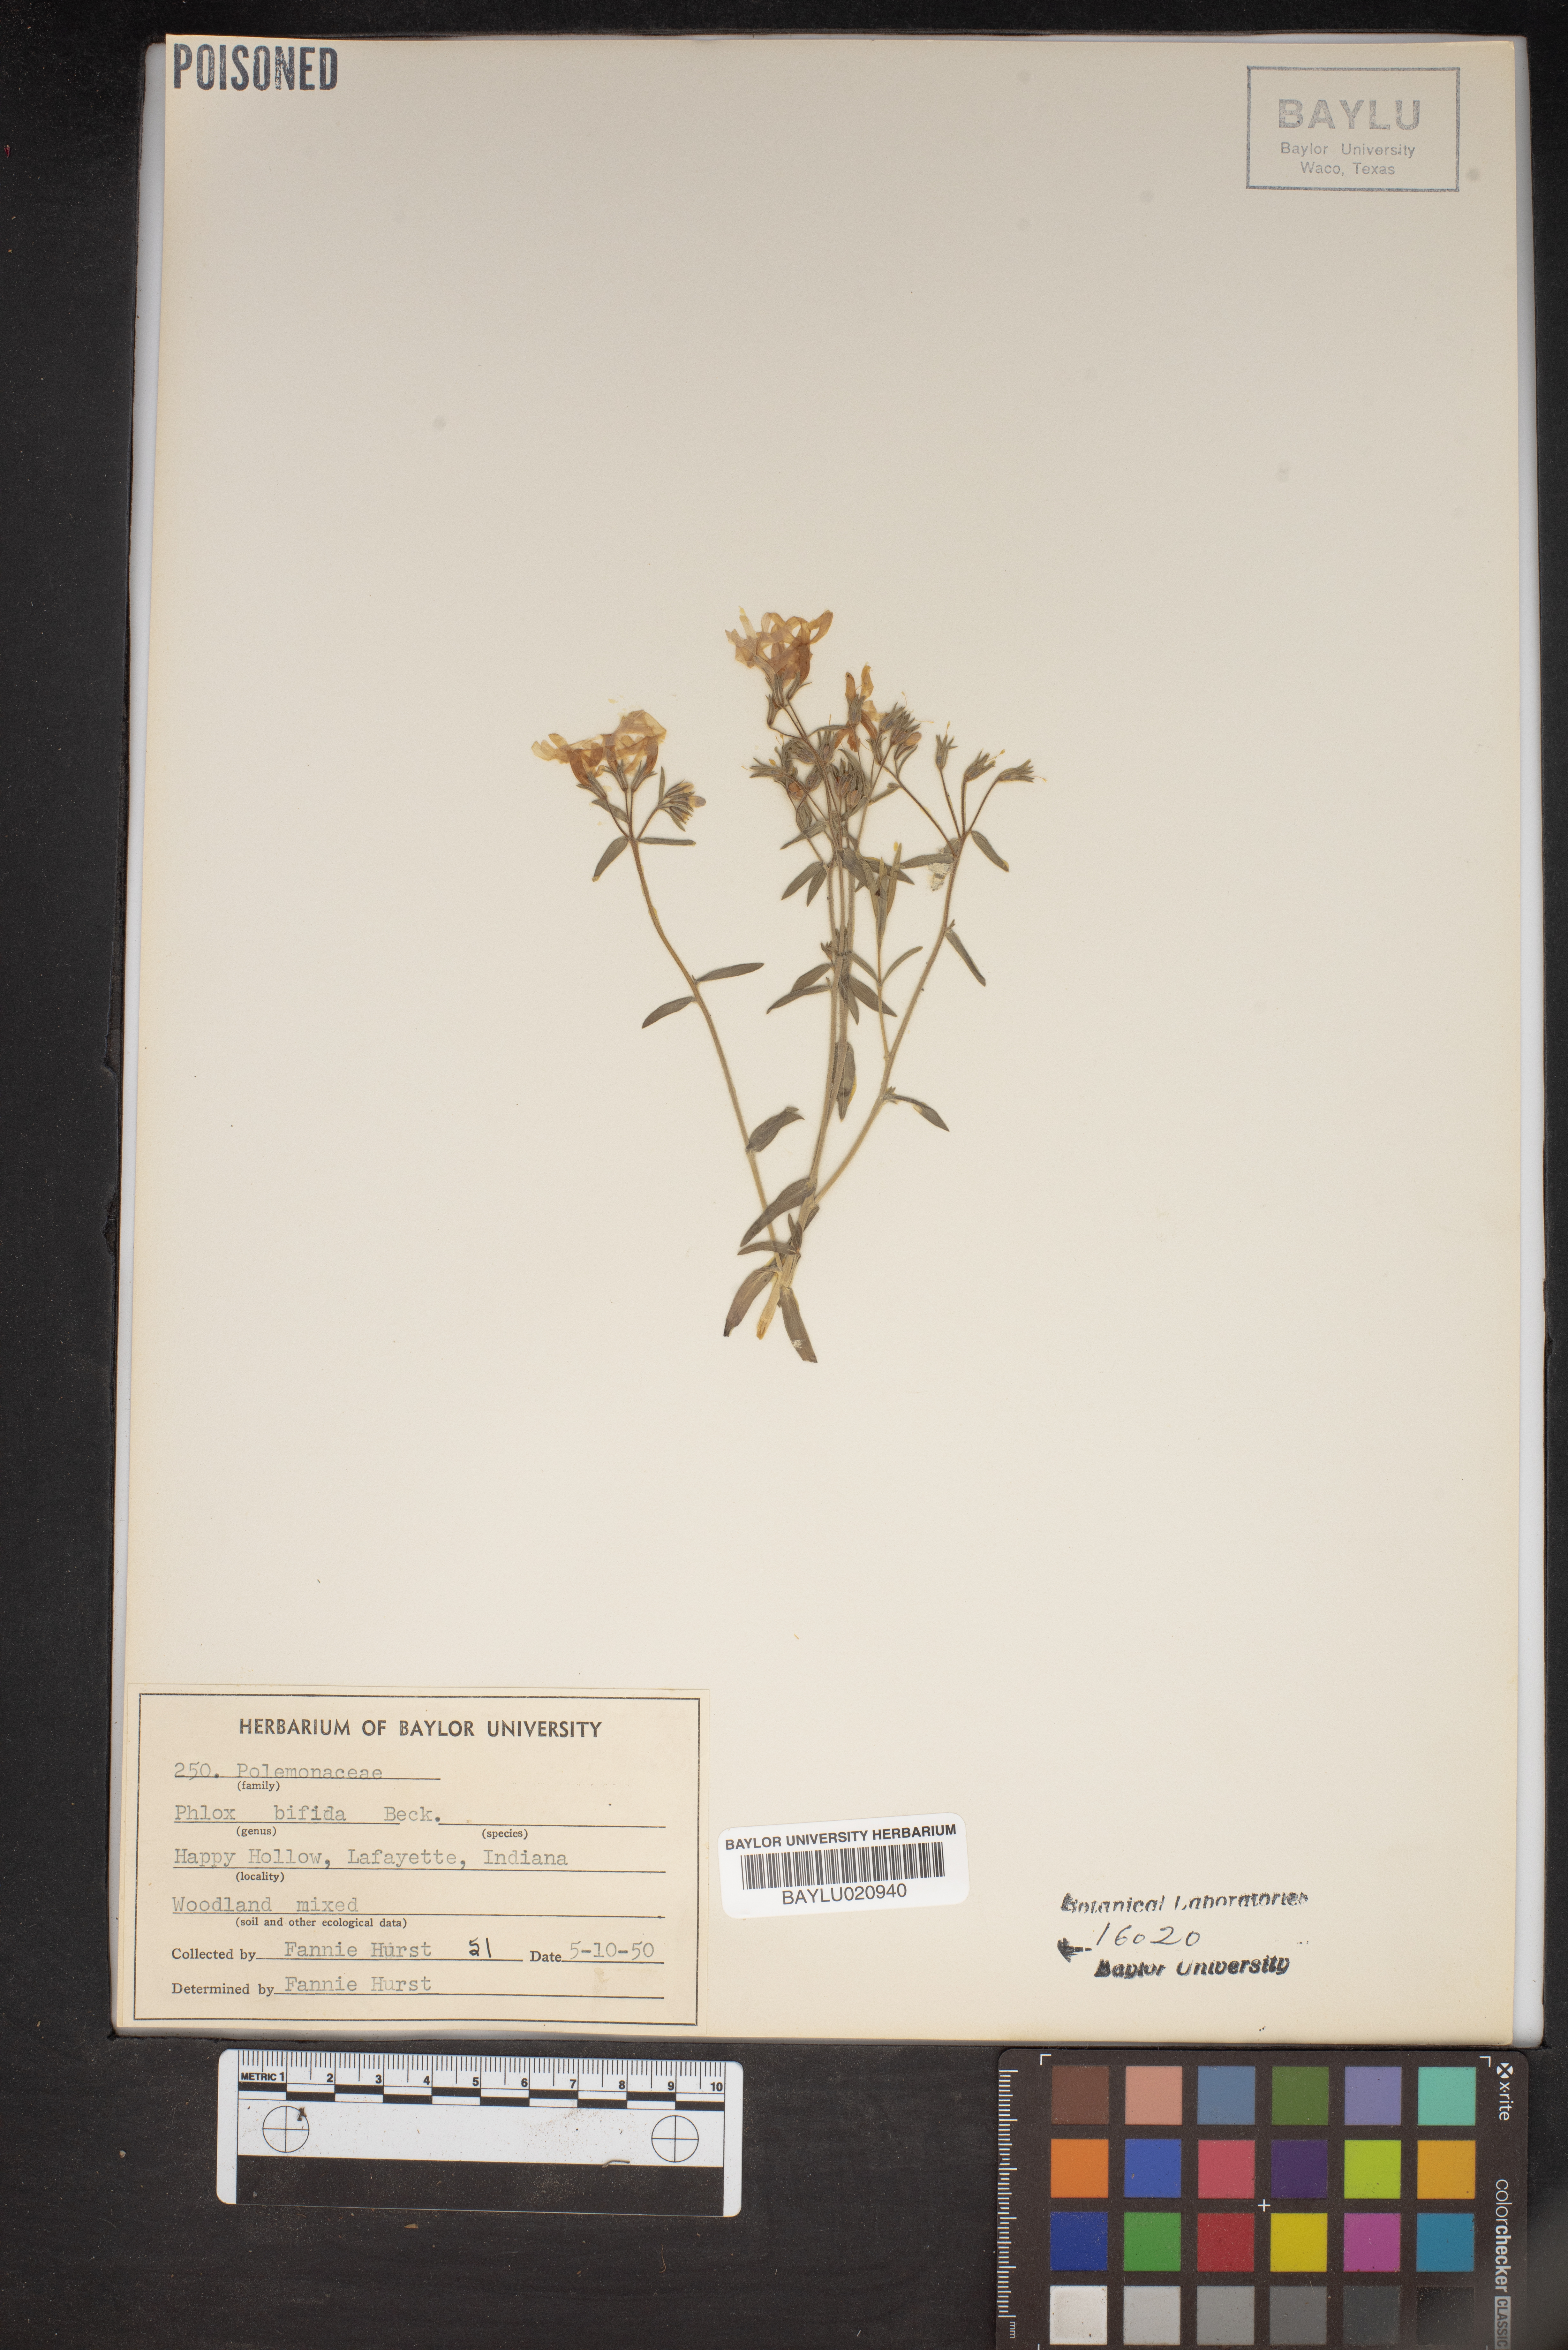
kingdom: Plantae
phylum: Tracheophyta
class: Magnoliopsida
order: Ericales
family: Polemoniaceae
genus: Phlox
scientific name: Phlox bifida
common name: Sand phlox
